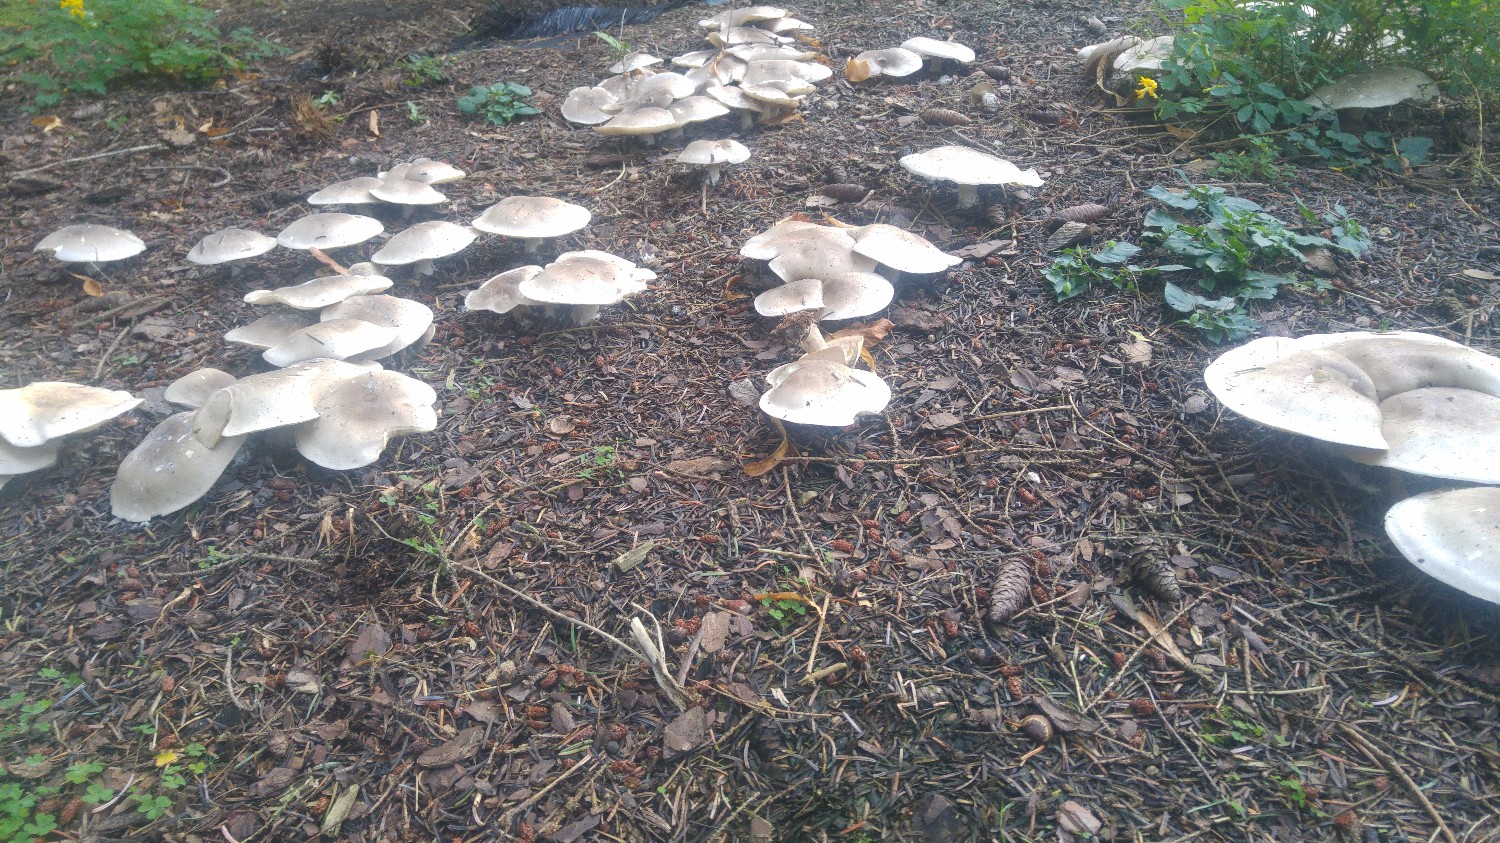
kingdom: Fungi
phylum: Basidiomycota
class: Agaricomycetes
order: Agaricales
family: Tricholomataceae
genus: Clitocybe
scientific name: Clitocybe nebularis
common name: tåge-tragthat
